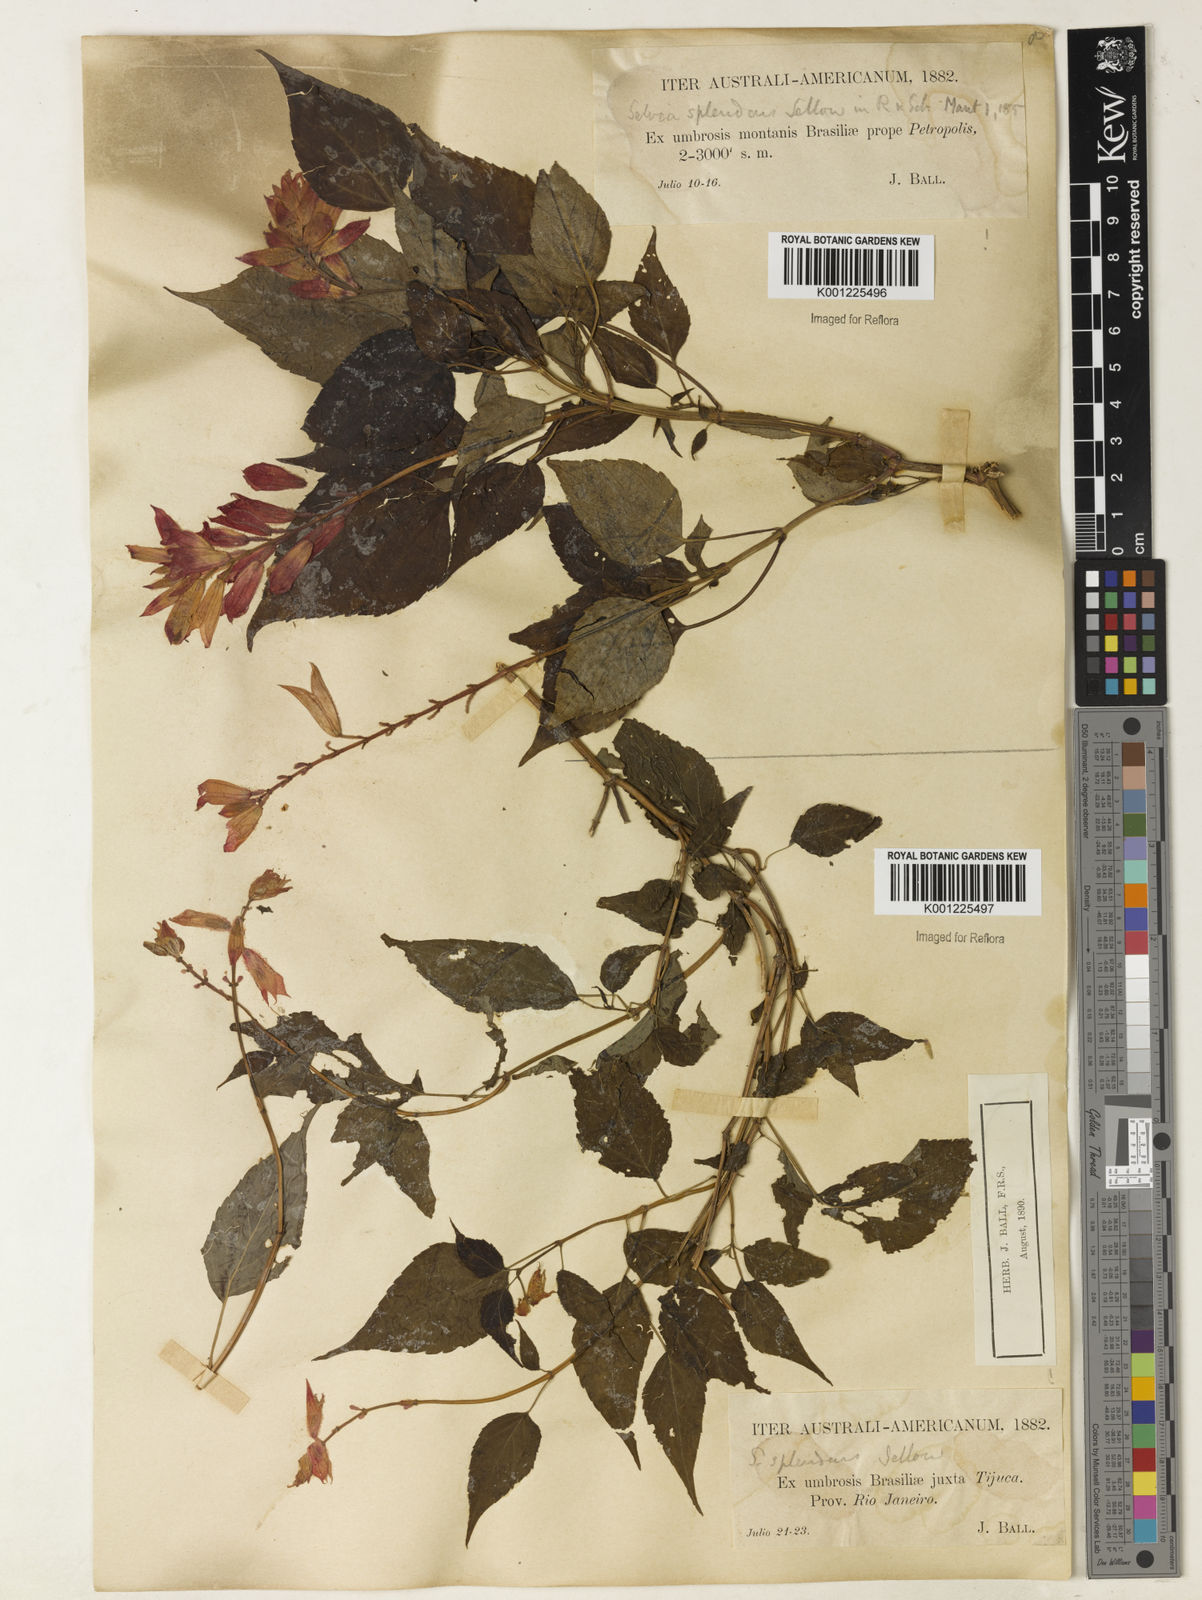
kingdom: Plantae
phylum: Tracheophyta
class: Magnoliopsida
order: Lamiales
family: Lamiaceae
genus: Salvia
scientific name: Salvia
